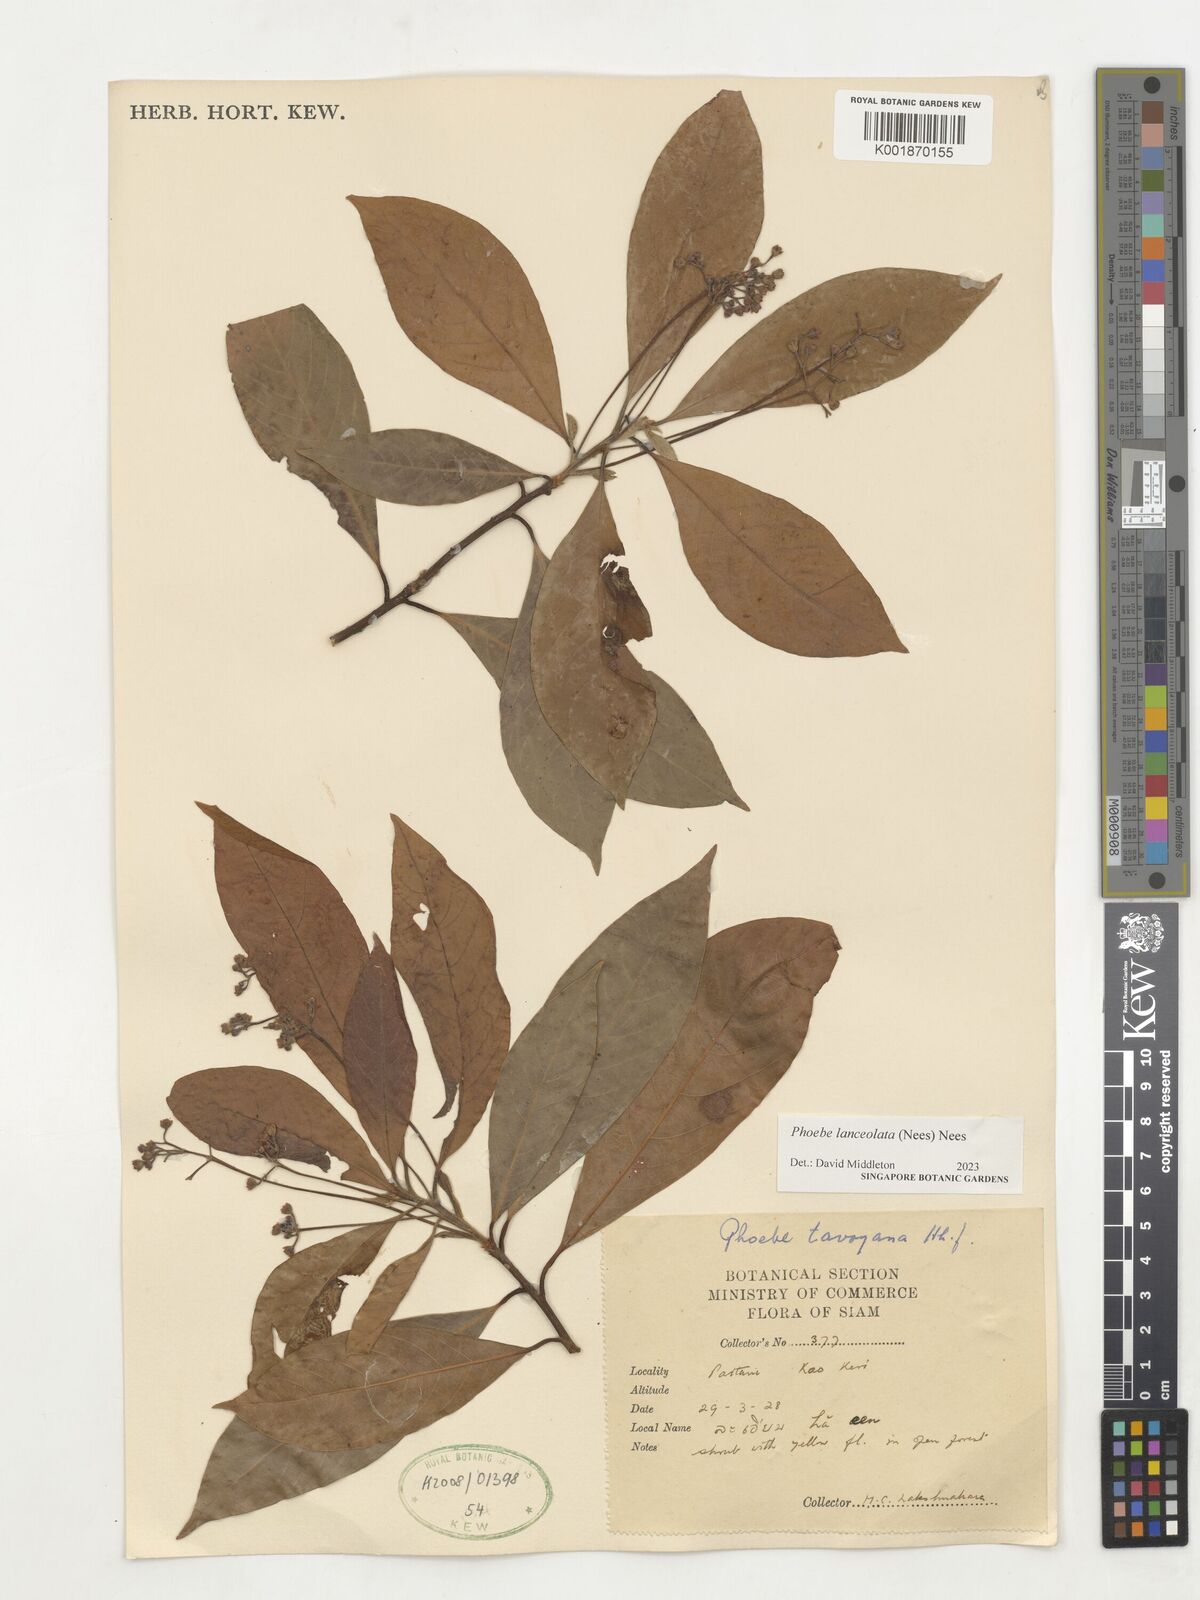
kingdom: Plantae
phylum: Tracheophyta
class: Magnoliopsida
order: Laurales
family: Lauraceae
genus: Phoebe
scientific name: Phoebe lanceolata
